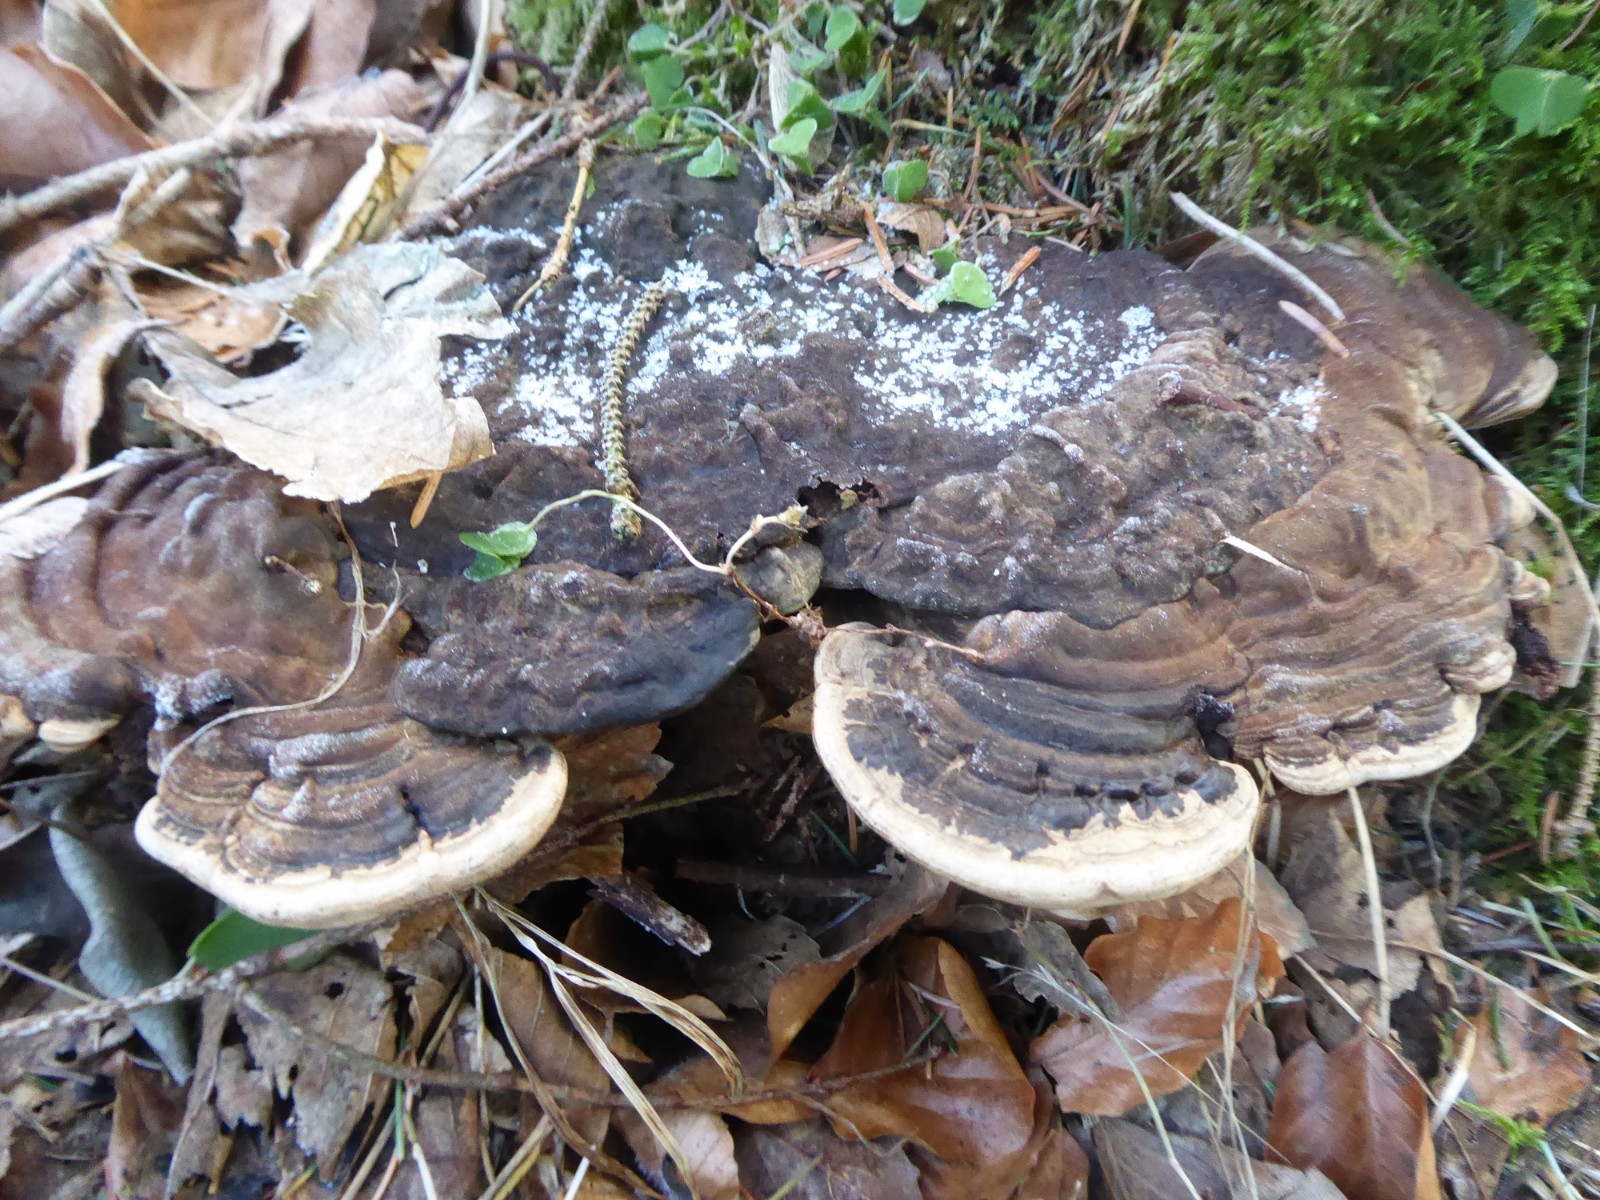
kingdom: Fungi
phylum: Basidiomycota
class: Agaricomycetes
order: Polyporales
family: Polyporaceae
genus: Ganoderma
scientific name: Ganoderma applanatum
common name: flad lakporesvamp
